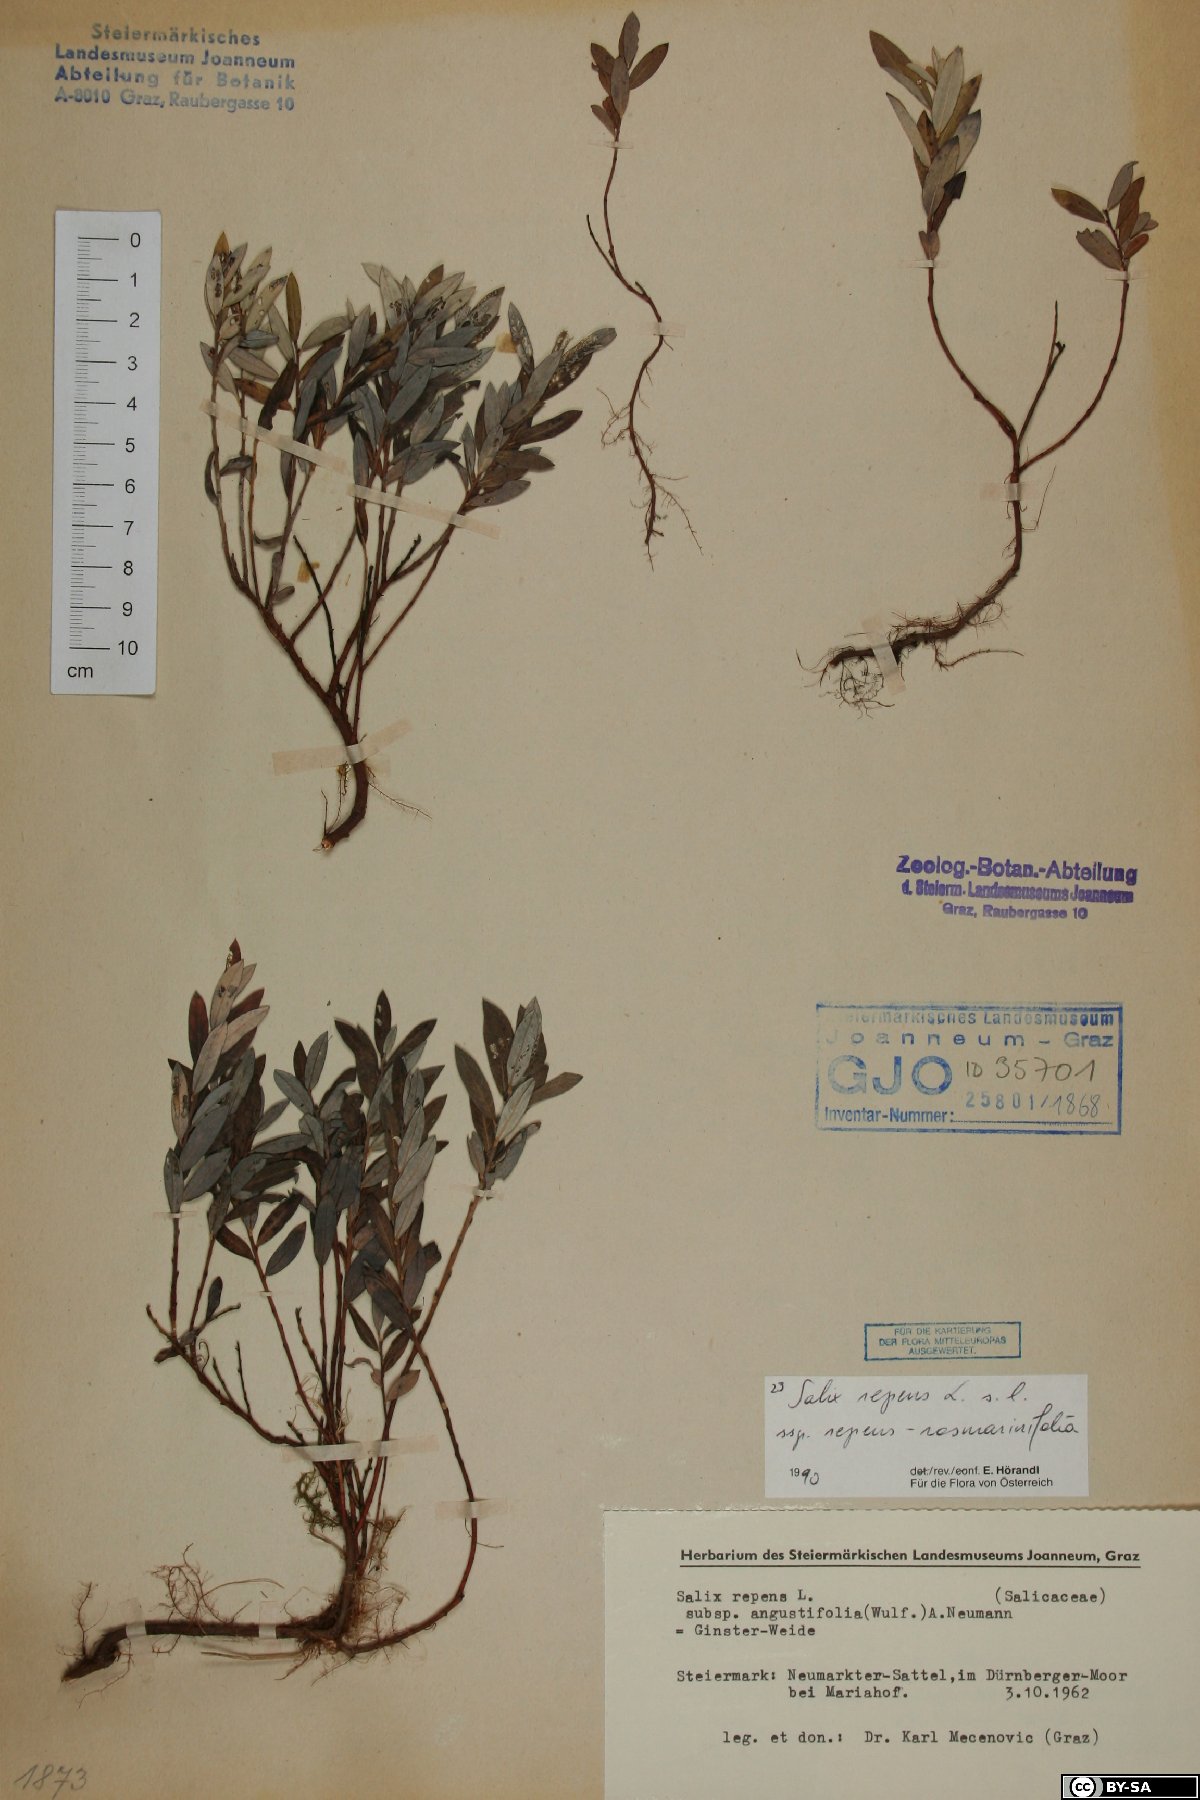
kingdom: Plantae
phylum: Tracheophyta
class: Magnoliopsida
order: Malpighiales
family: Salicaceae
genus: Salix
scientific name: Salix repens
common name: Creeping willow
